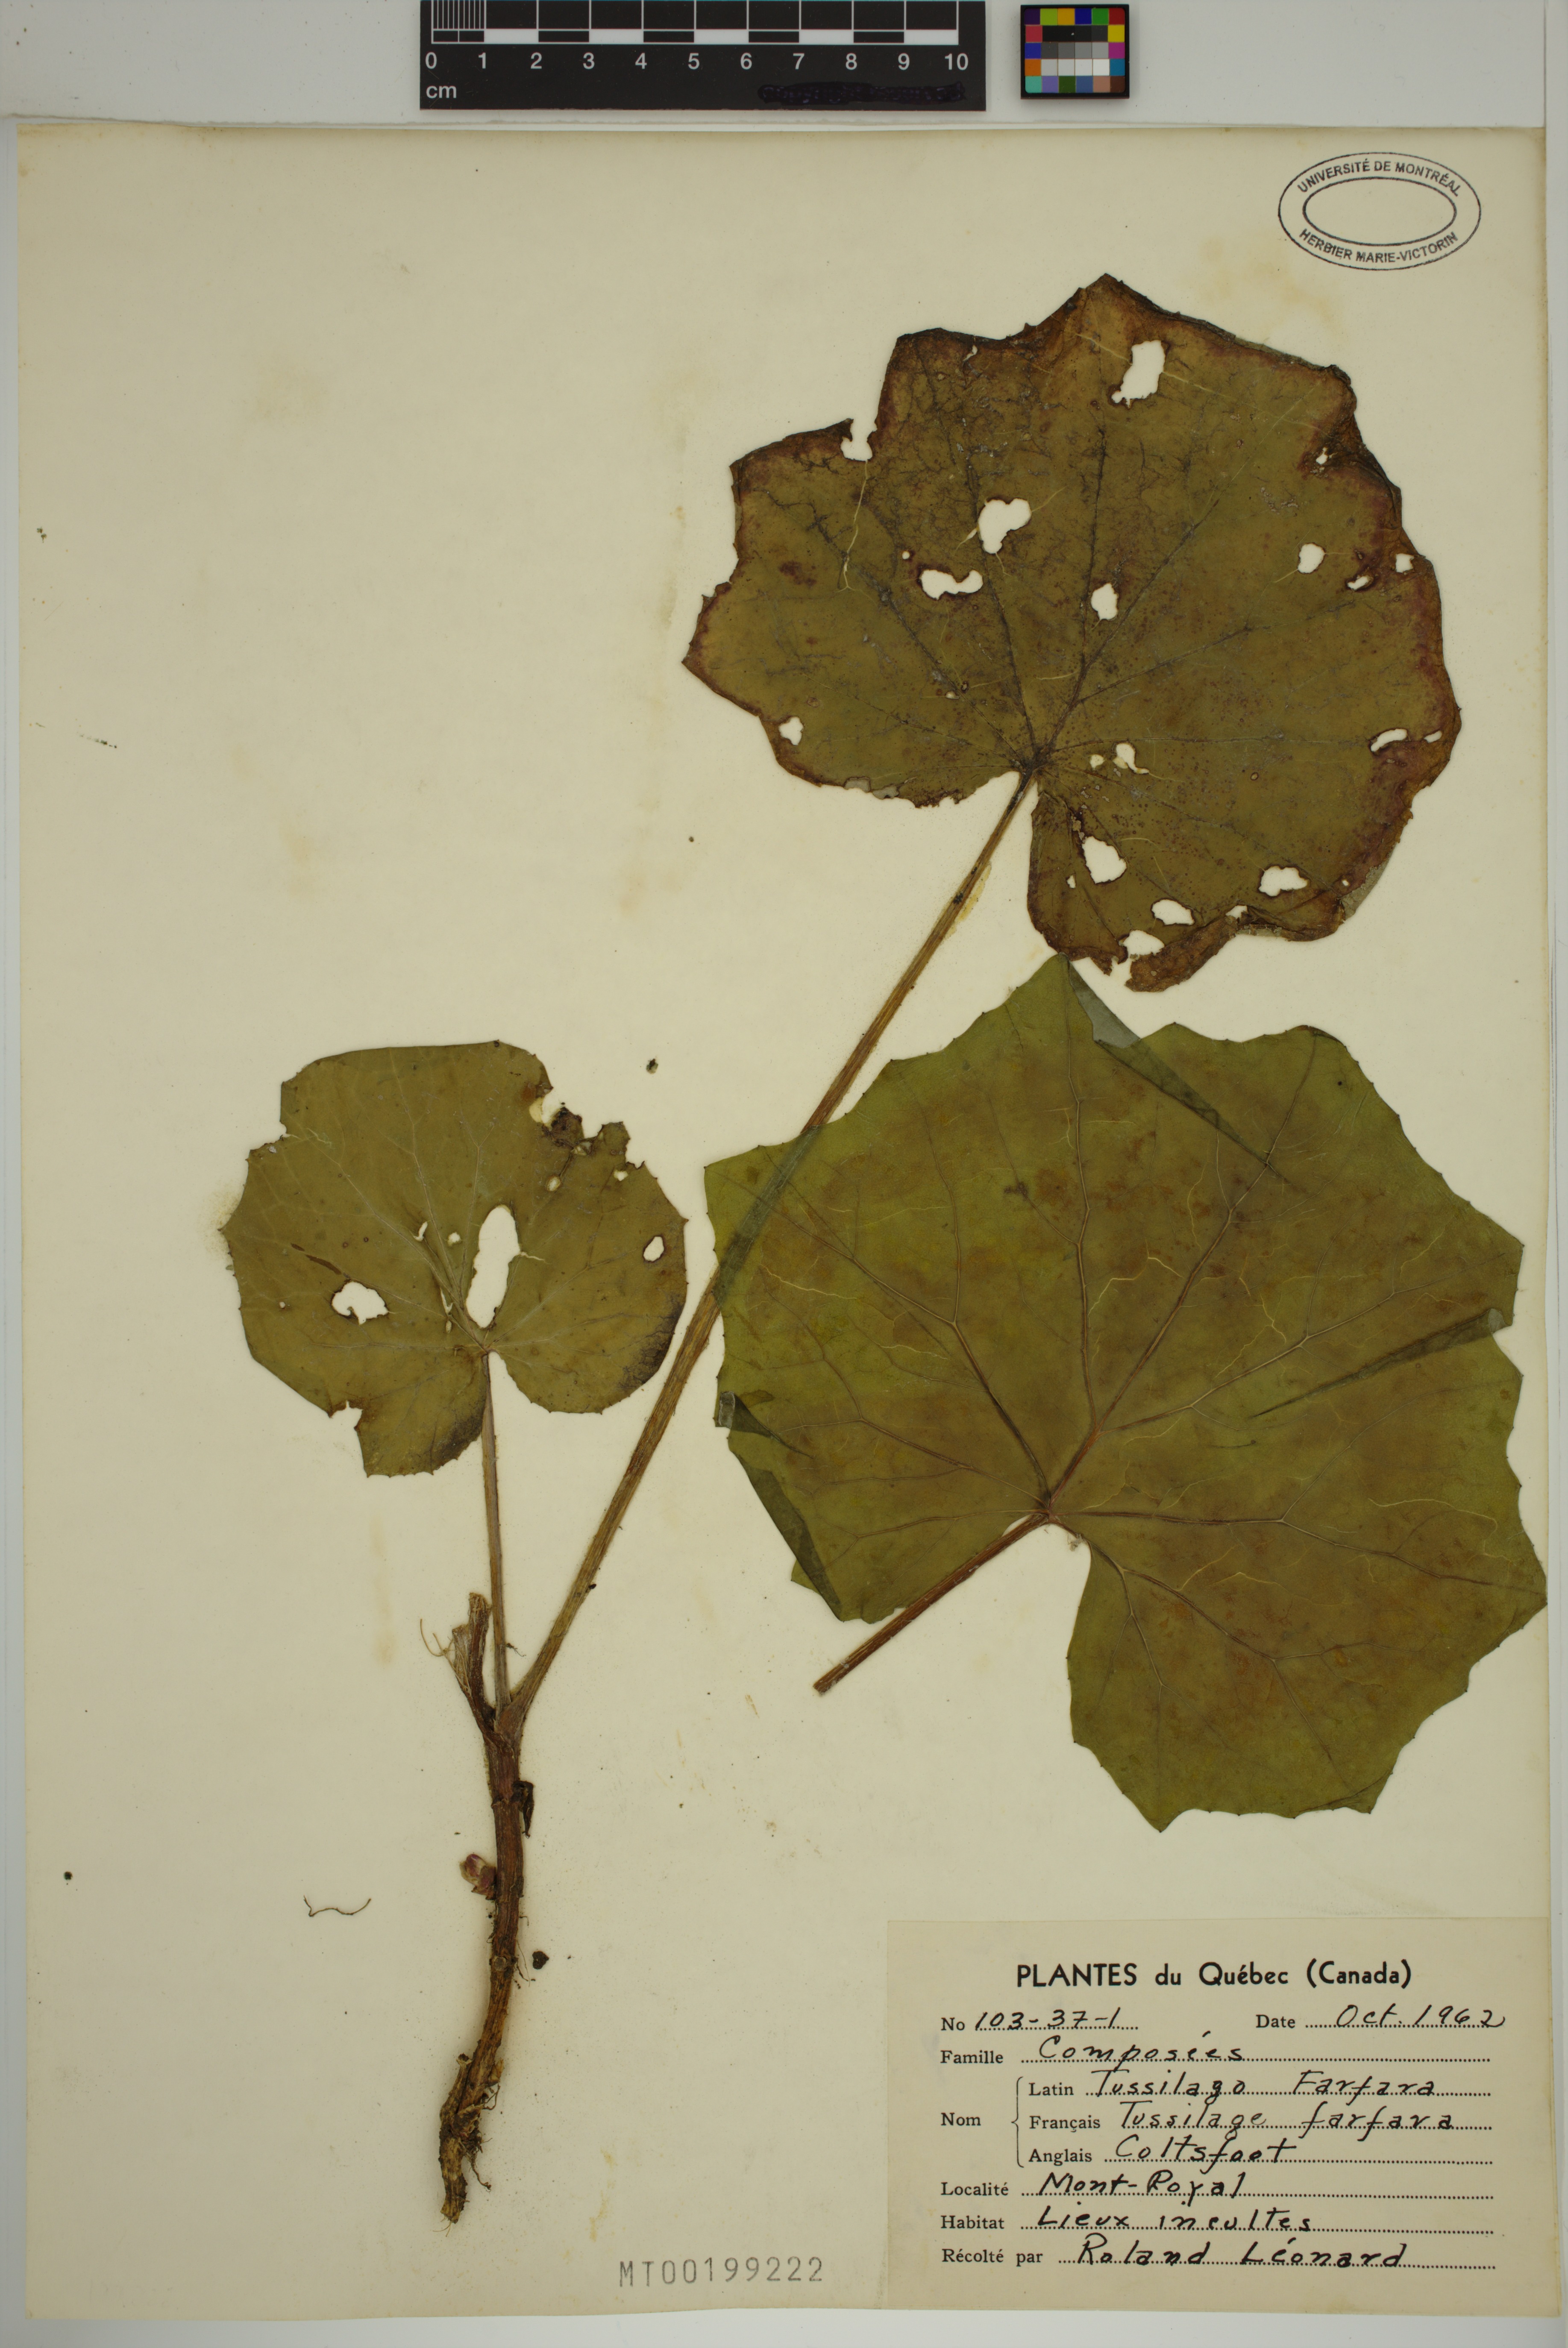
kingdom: Plantae
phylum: Tracheophyta
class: Magnoliopsida
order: Asterales
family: Asteraceae
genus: Tussilago
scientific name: Tussilago farfara
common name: Coltsfoot
